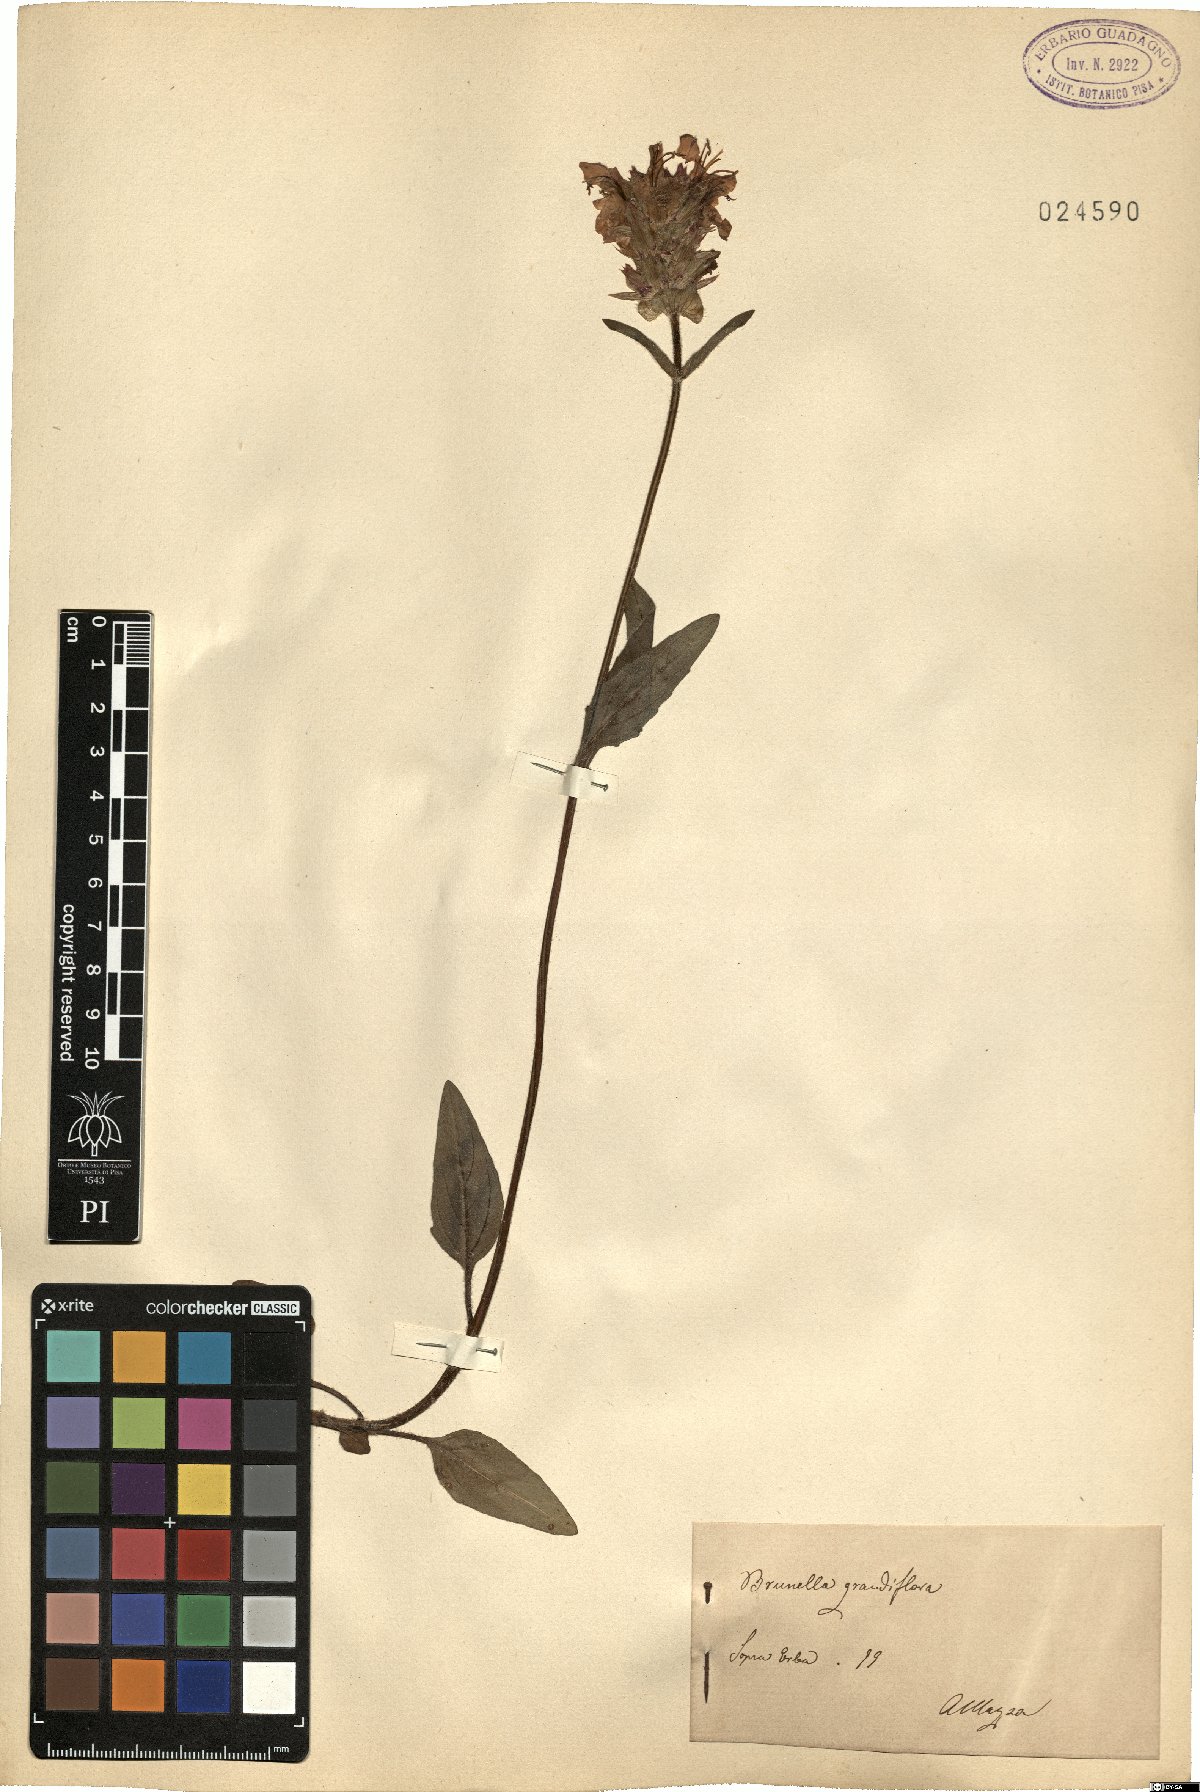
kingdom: Plantae
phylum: Tracheophyta
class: Magnoliopsida
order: Lamiales
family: Lamiaceae
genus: Prunella
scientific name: Prunella grandiflora
